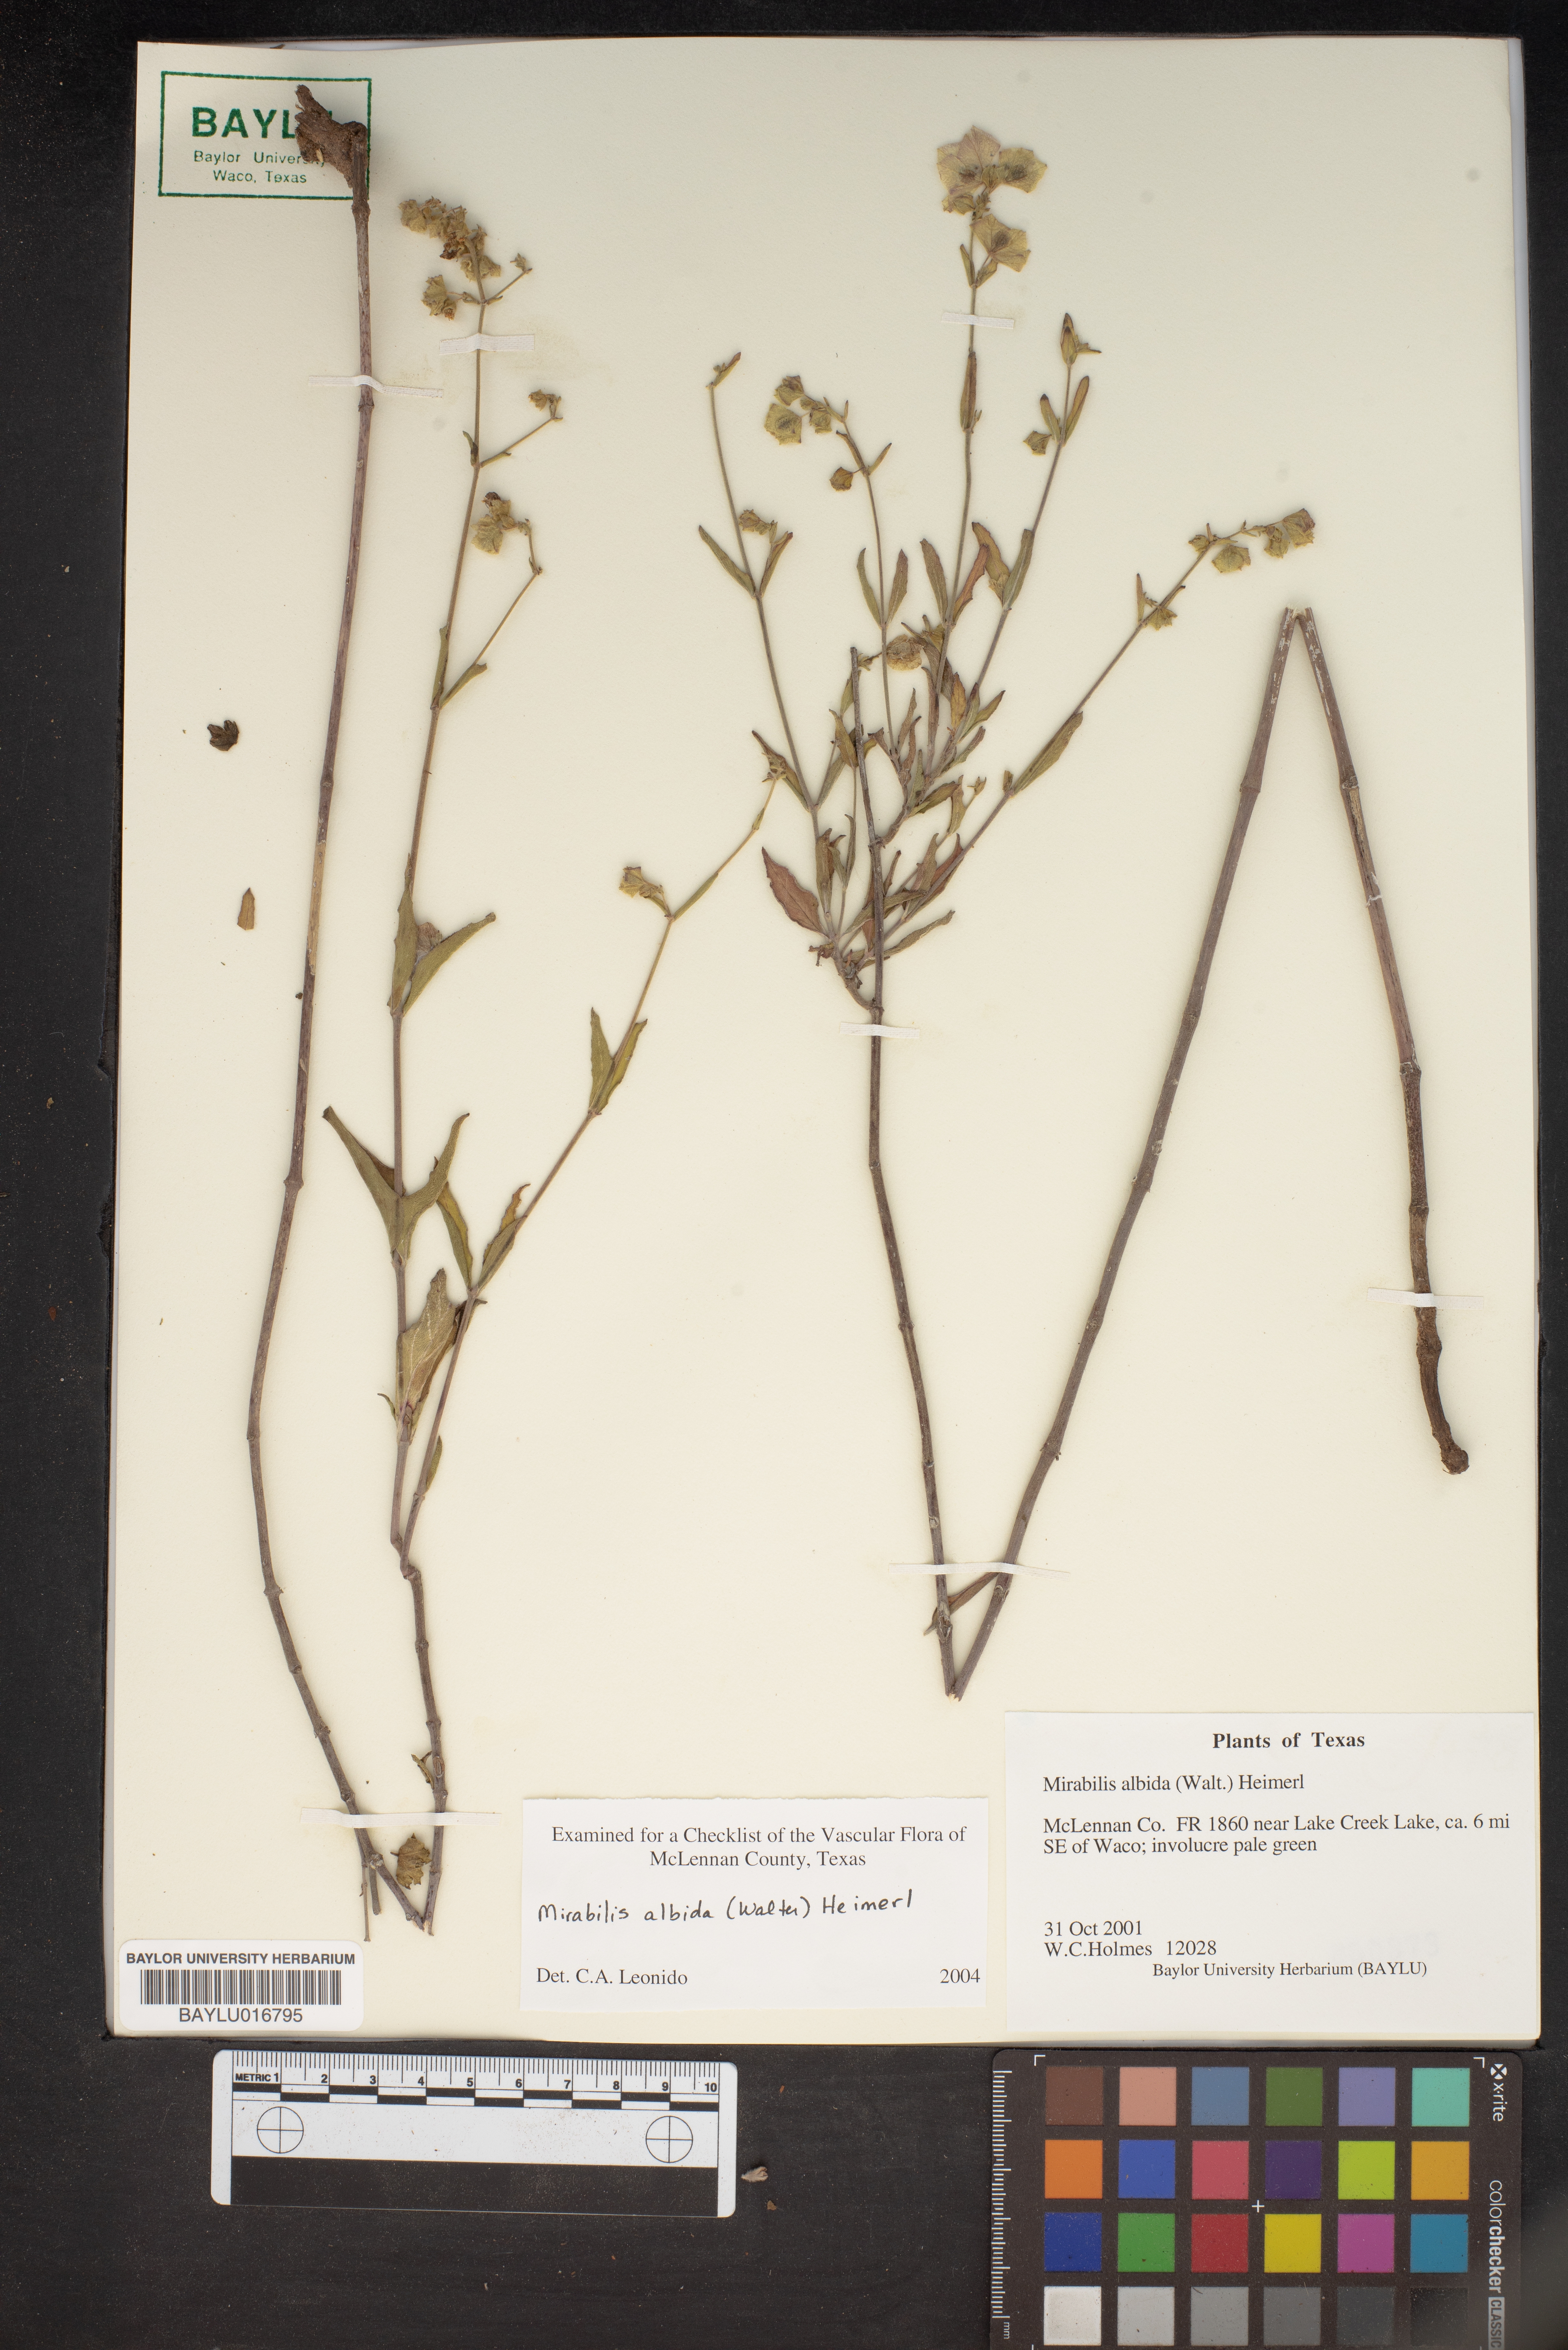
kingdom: Plantae
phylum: Tracheophyta
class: Magnoliopsida
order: Caryophyllales
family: Nyctaginaceae
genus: Mirabilis
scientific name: Mirabilis albida
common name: Hairy four-o'clock
